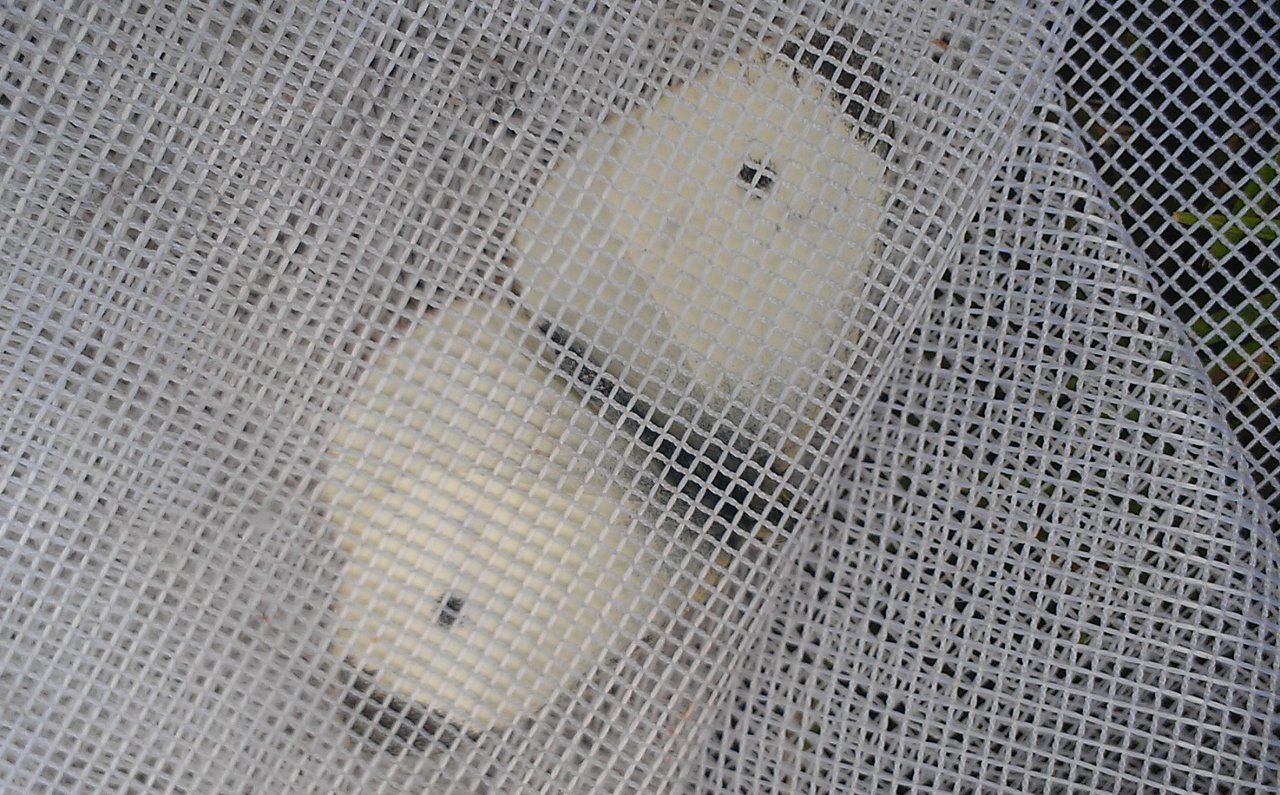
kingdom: Animalia
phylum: Arthropoda
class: Insecta
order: Lepidoptera
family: Pieridae
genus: Pieris
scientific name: Pieris rapae
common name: Cabbage White
